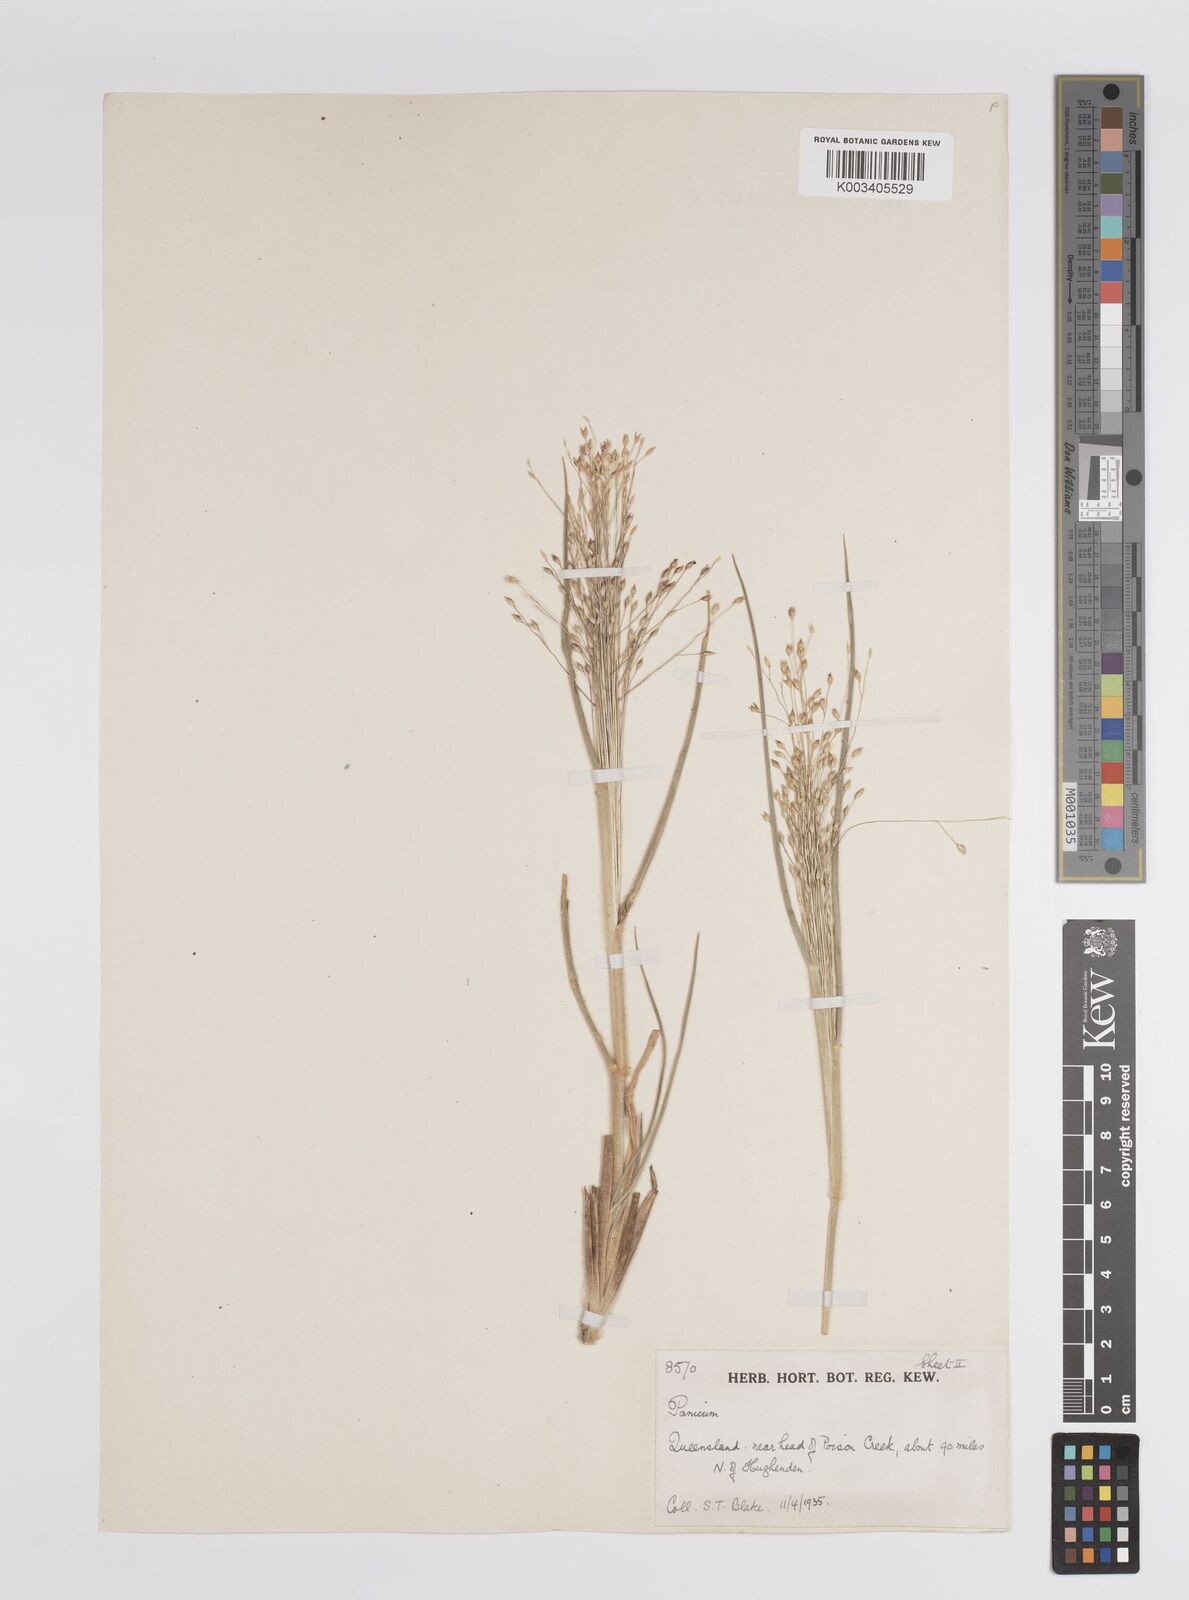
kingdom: Plantae
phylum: Tracheophyta
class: Liliopsida
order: Poales
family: Poaceae
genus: Panicum
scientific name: Panicum
